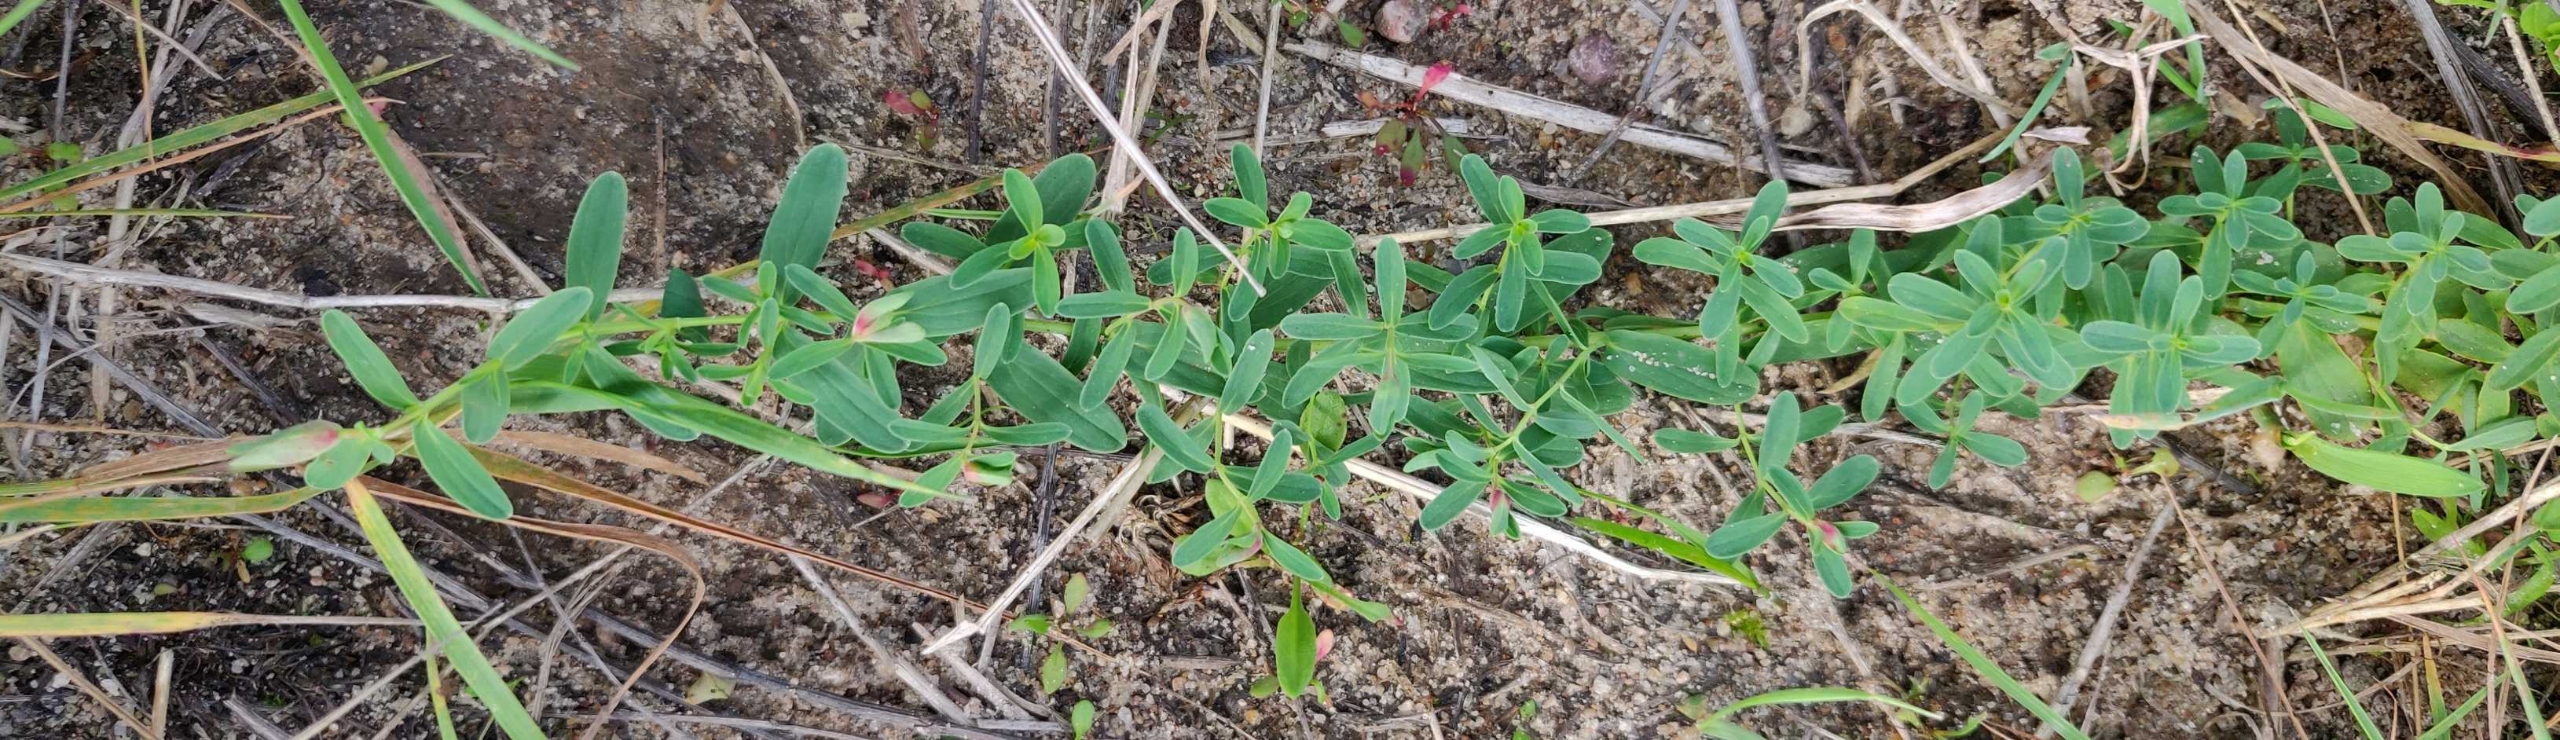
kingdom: Plantae
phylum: Tracheophyta
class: Magnoliopsida
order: Malpighiales
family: Hypericaceae
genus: Hypericum
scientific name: Hypericum humifusum
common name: Dværg-perikon
